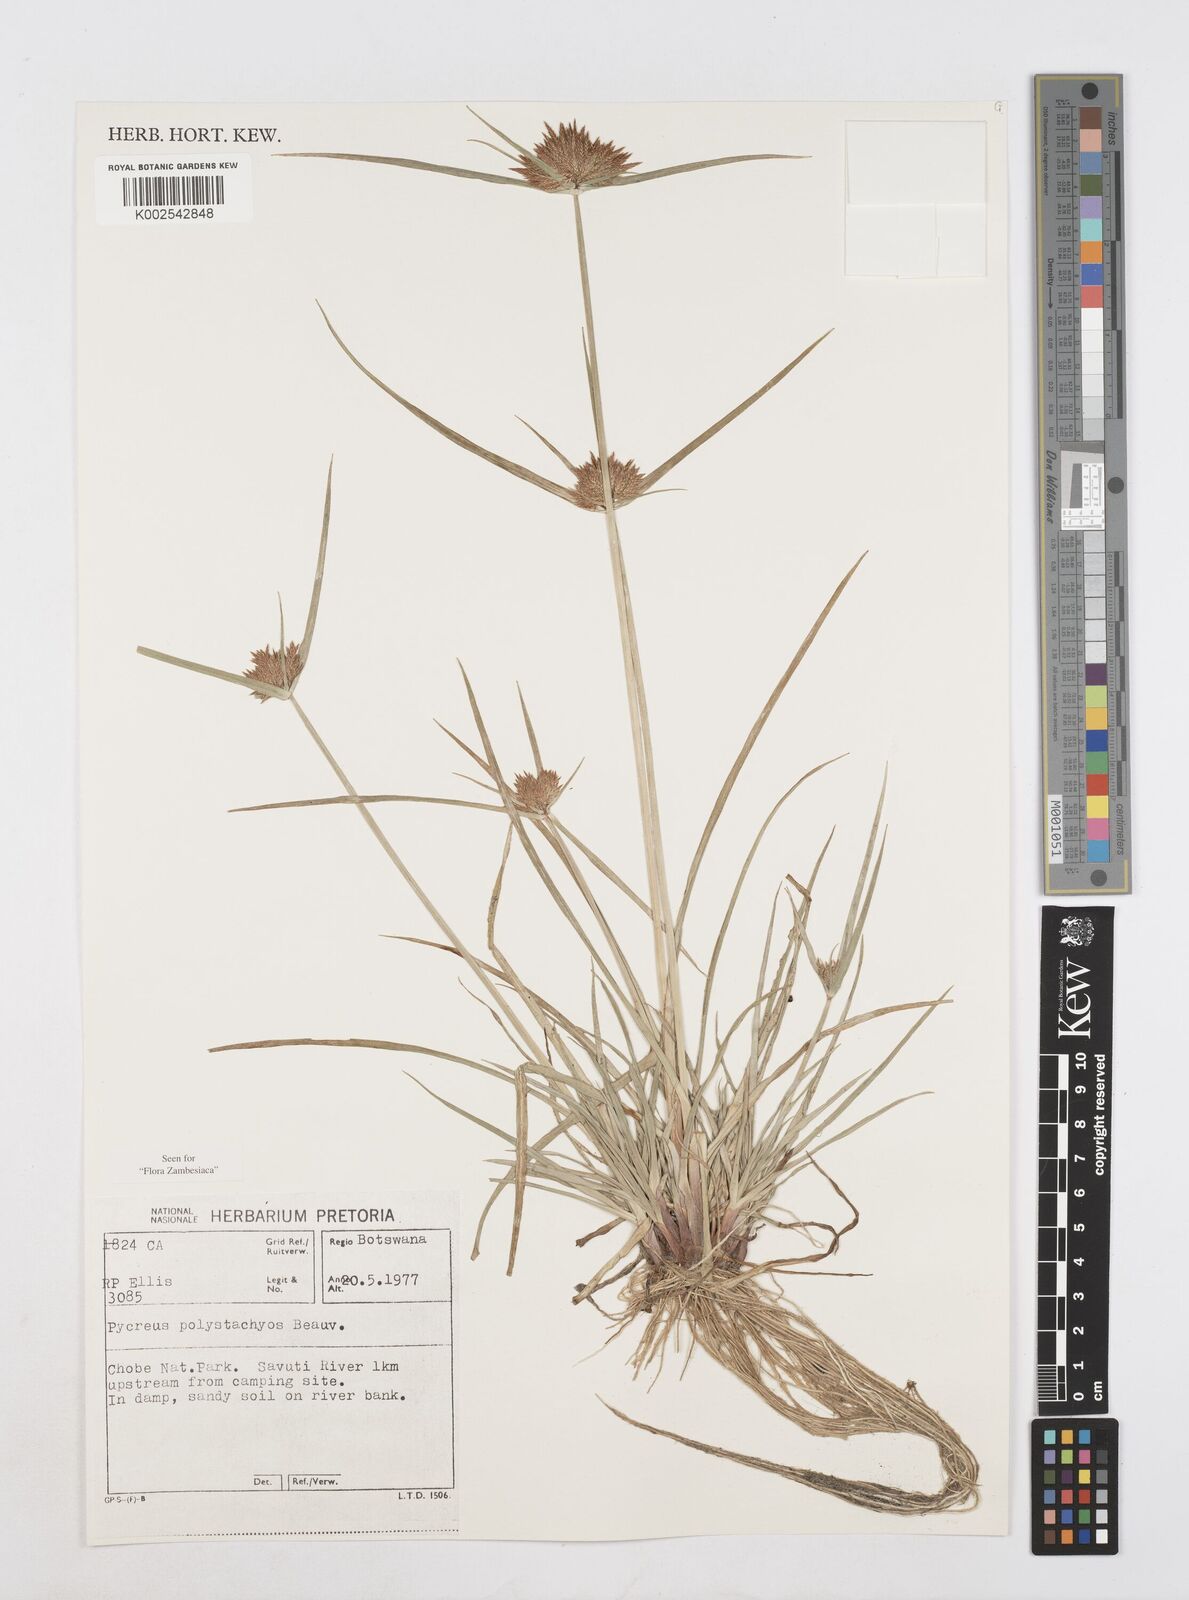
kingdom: Plantae
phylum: Tracheophyta
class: Liliopsida
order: Poales
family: Cyperaceae
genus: Cyperus
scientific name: Cyperus polystachyos
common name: Bunchy flat sedge
